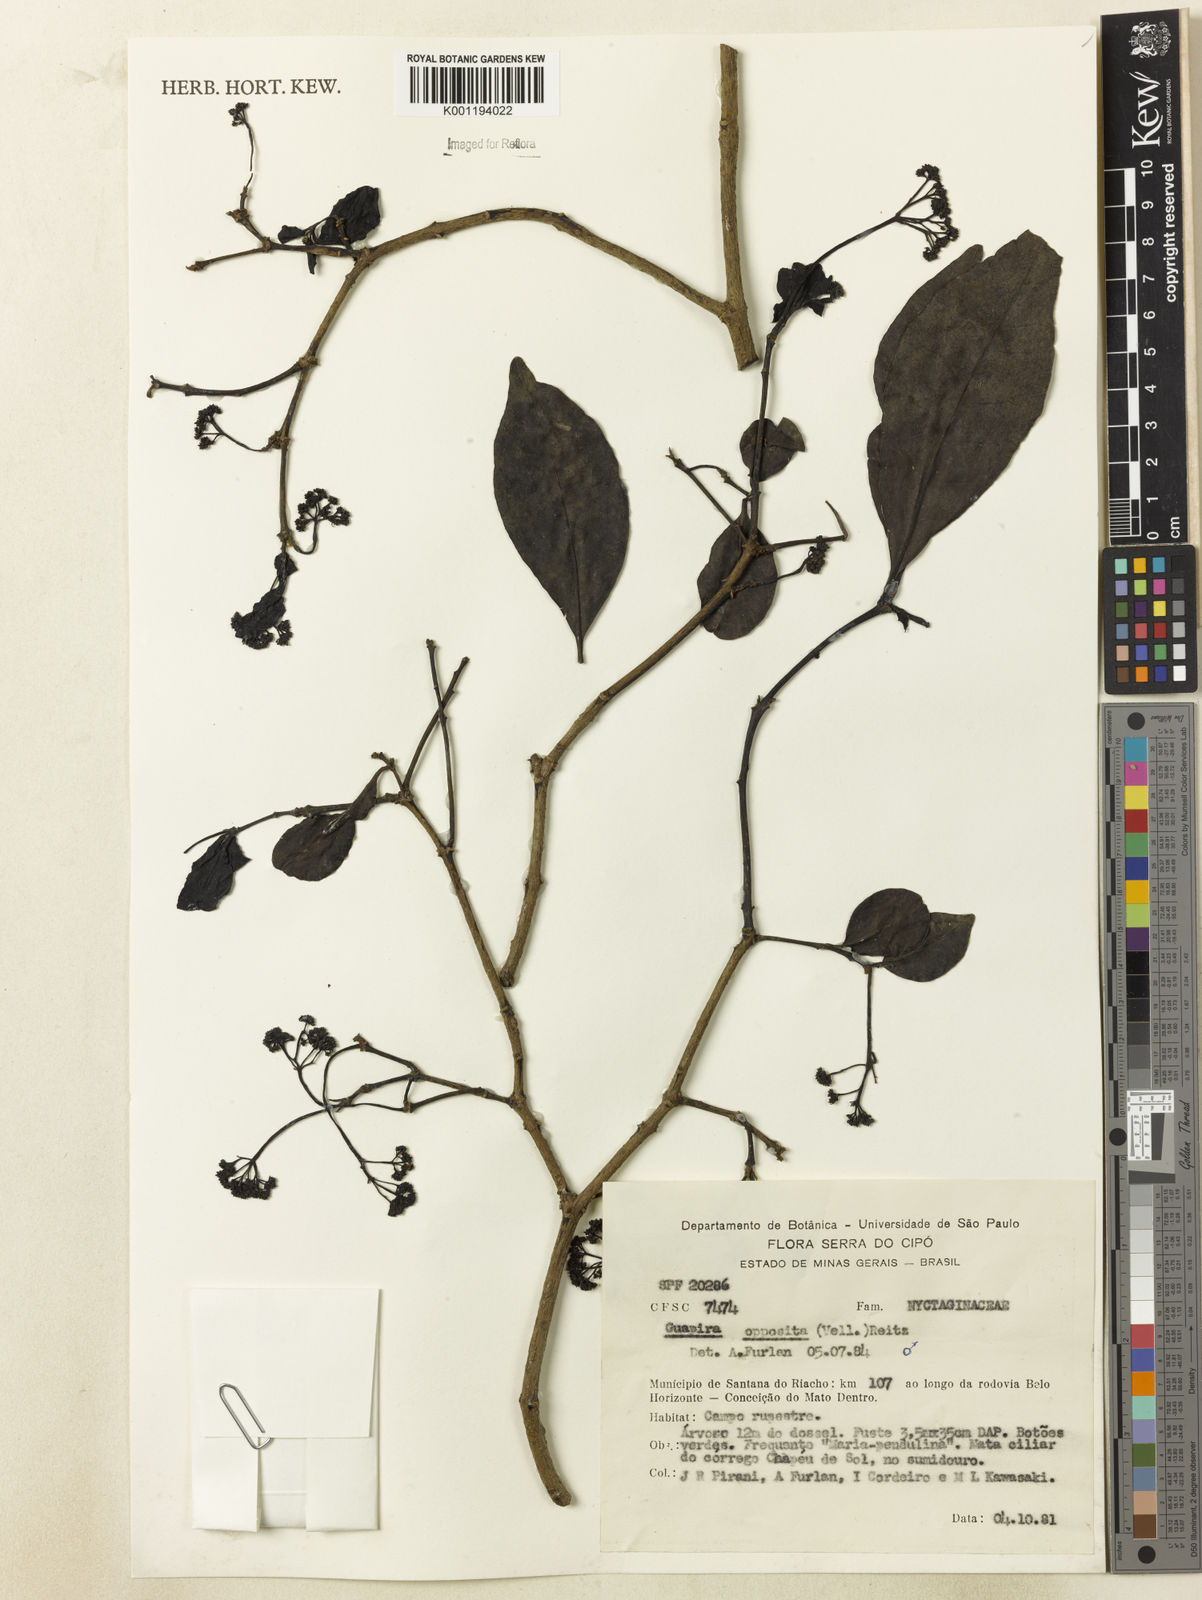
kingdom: Plantae
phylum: Tracheophyta
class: Magnoliopsida
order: Caryophyllales
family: Nyctaginaceae
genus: Guapira
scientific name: Guapira opposita
